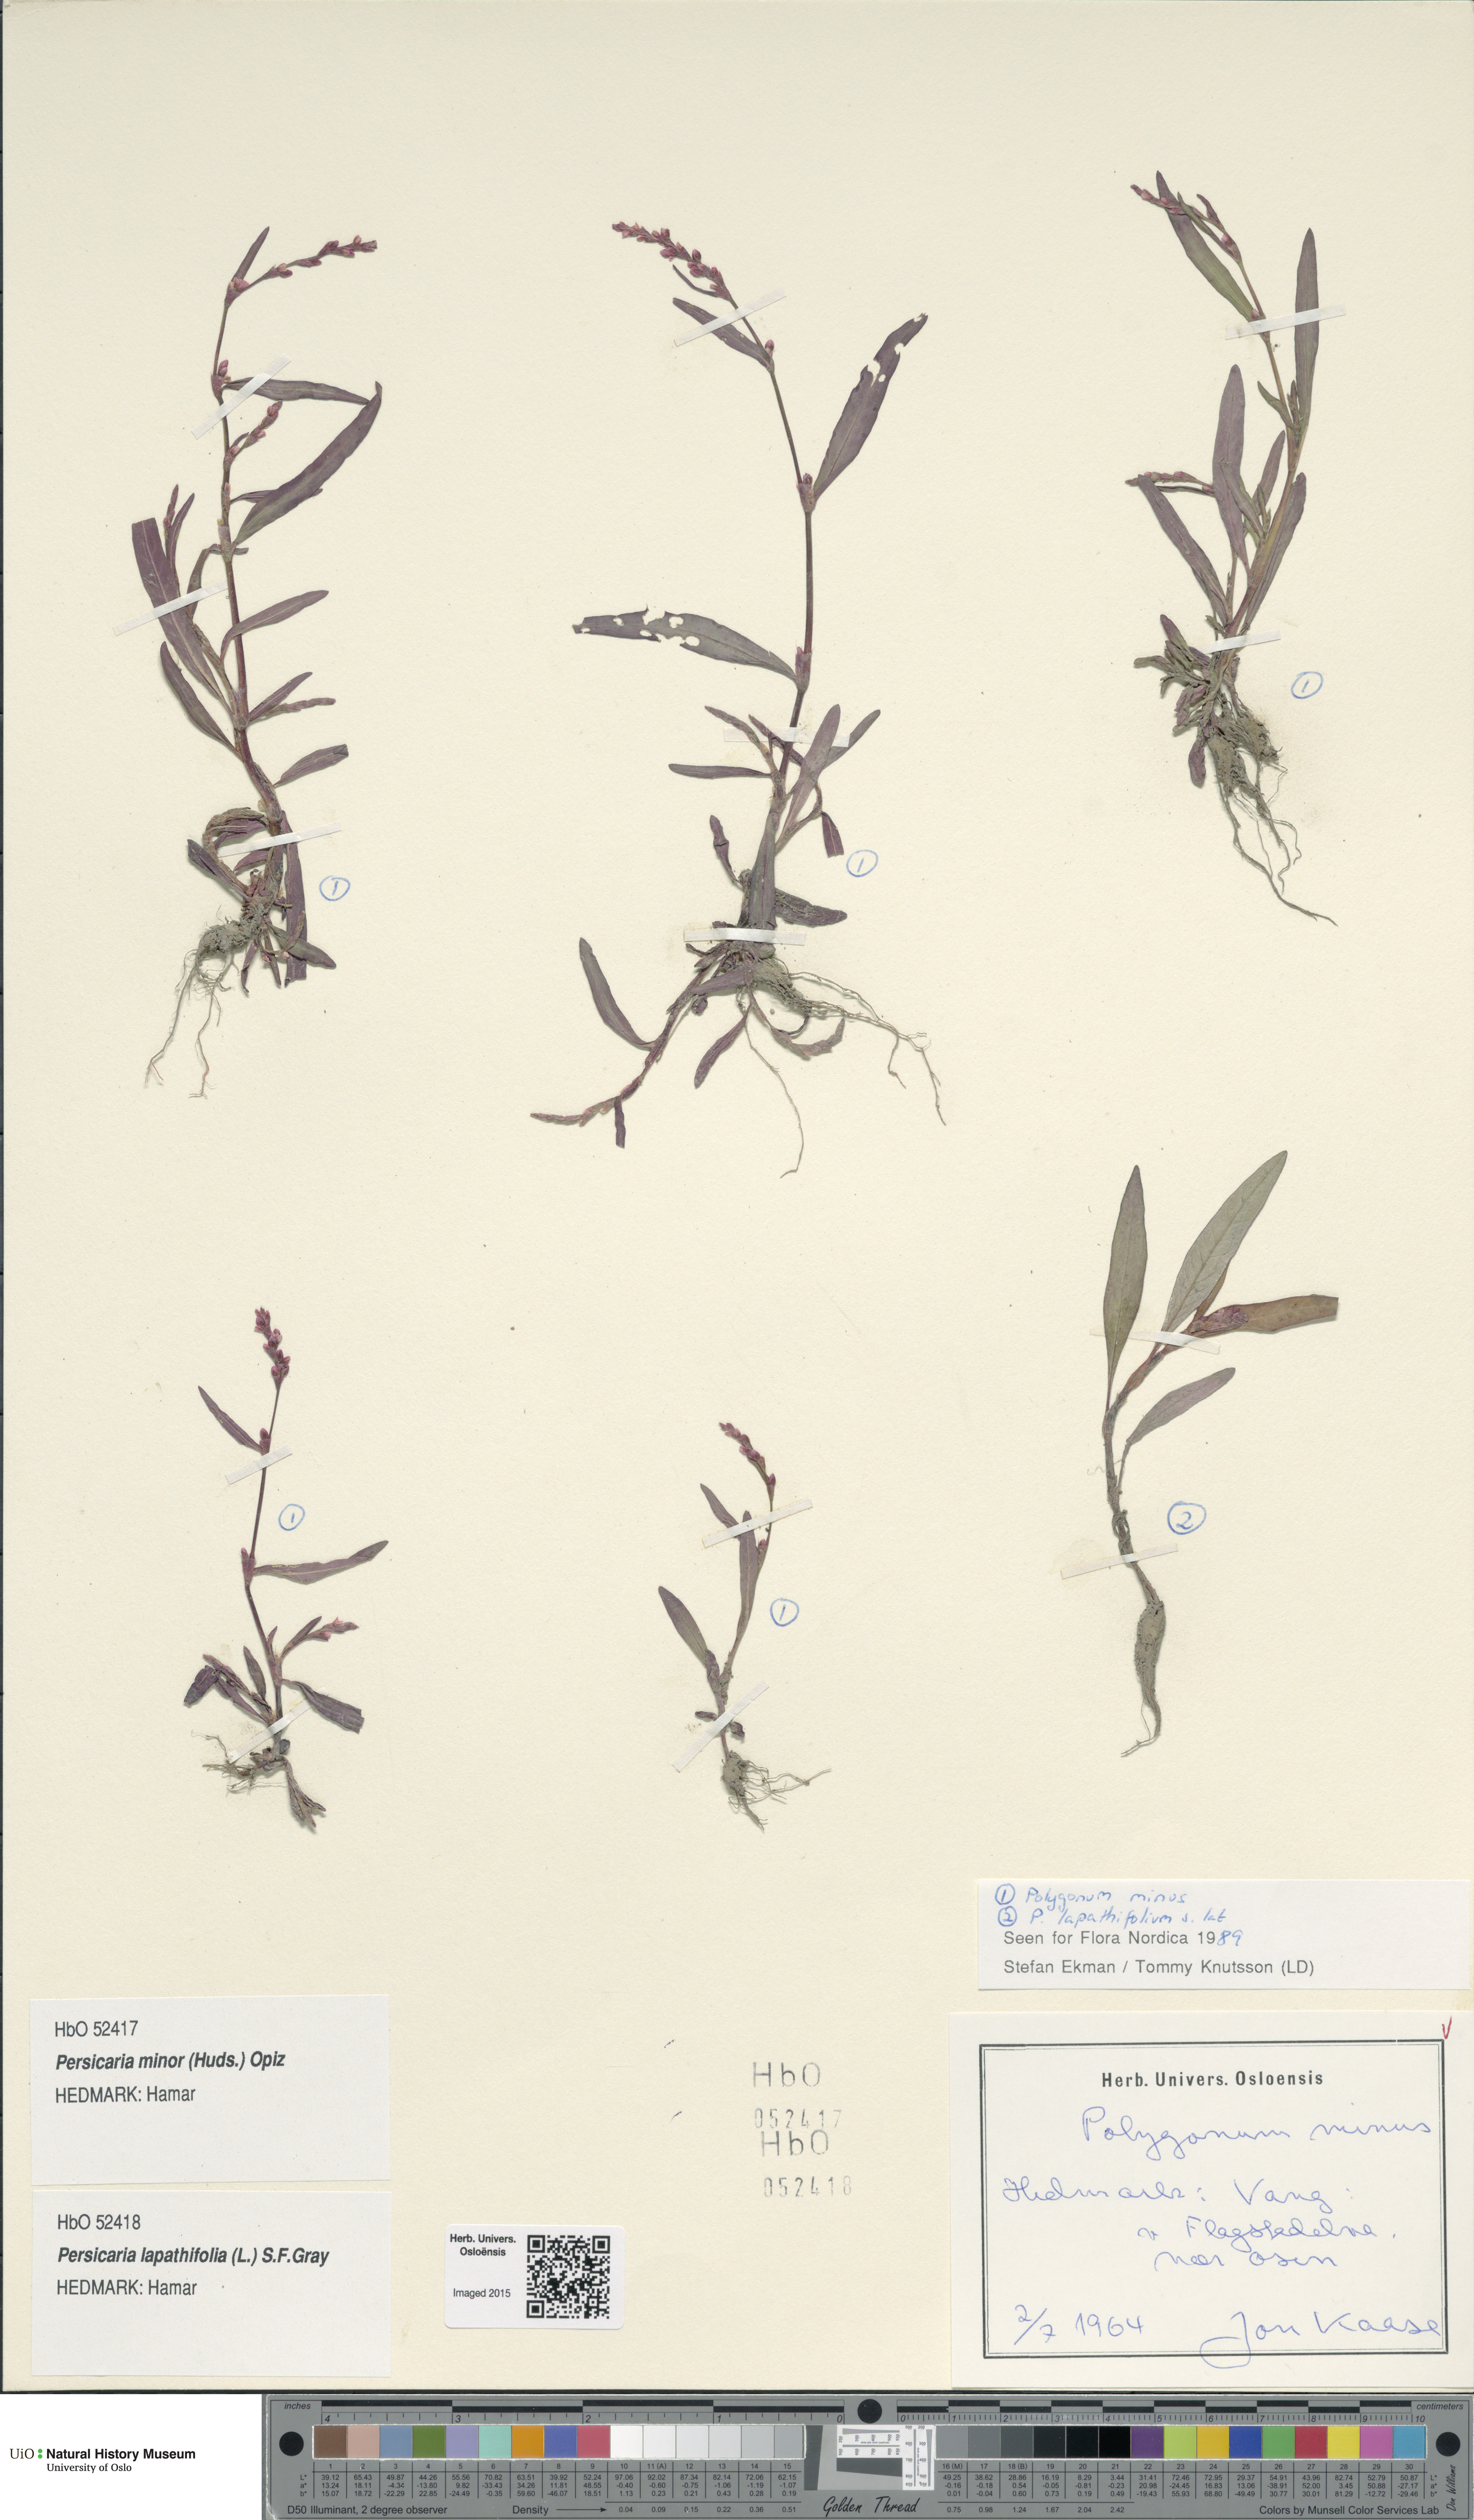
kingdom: Plantae
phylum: Tracheophyta
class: Magnoliopsida
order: Caryophyllales
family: Polygonaceae
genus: Persicaria
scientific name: Persicaria lapathifolia
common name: Curlytop knotweed
